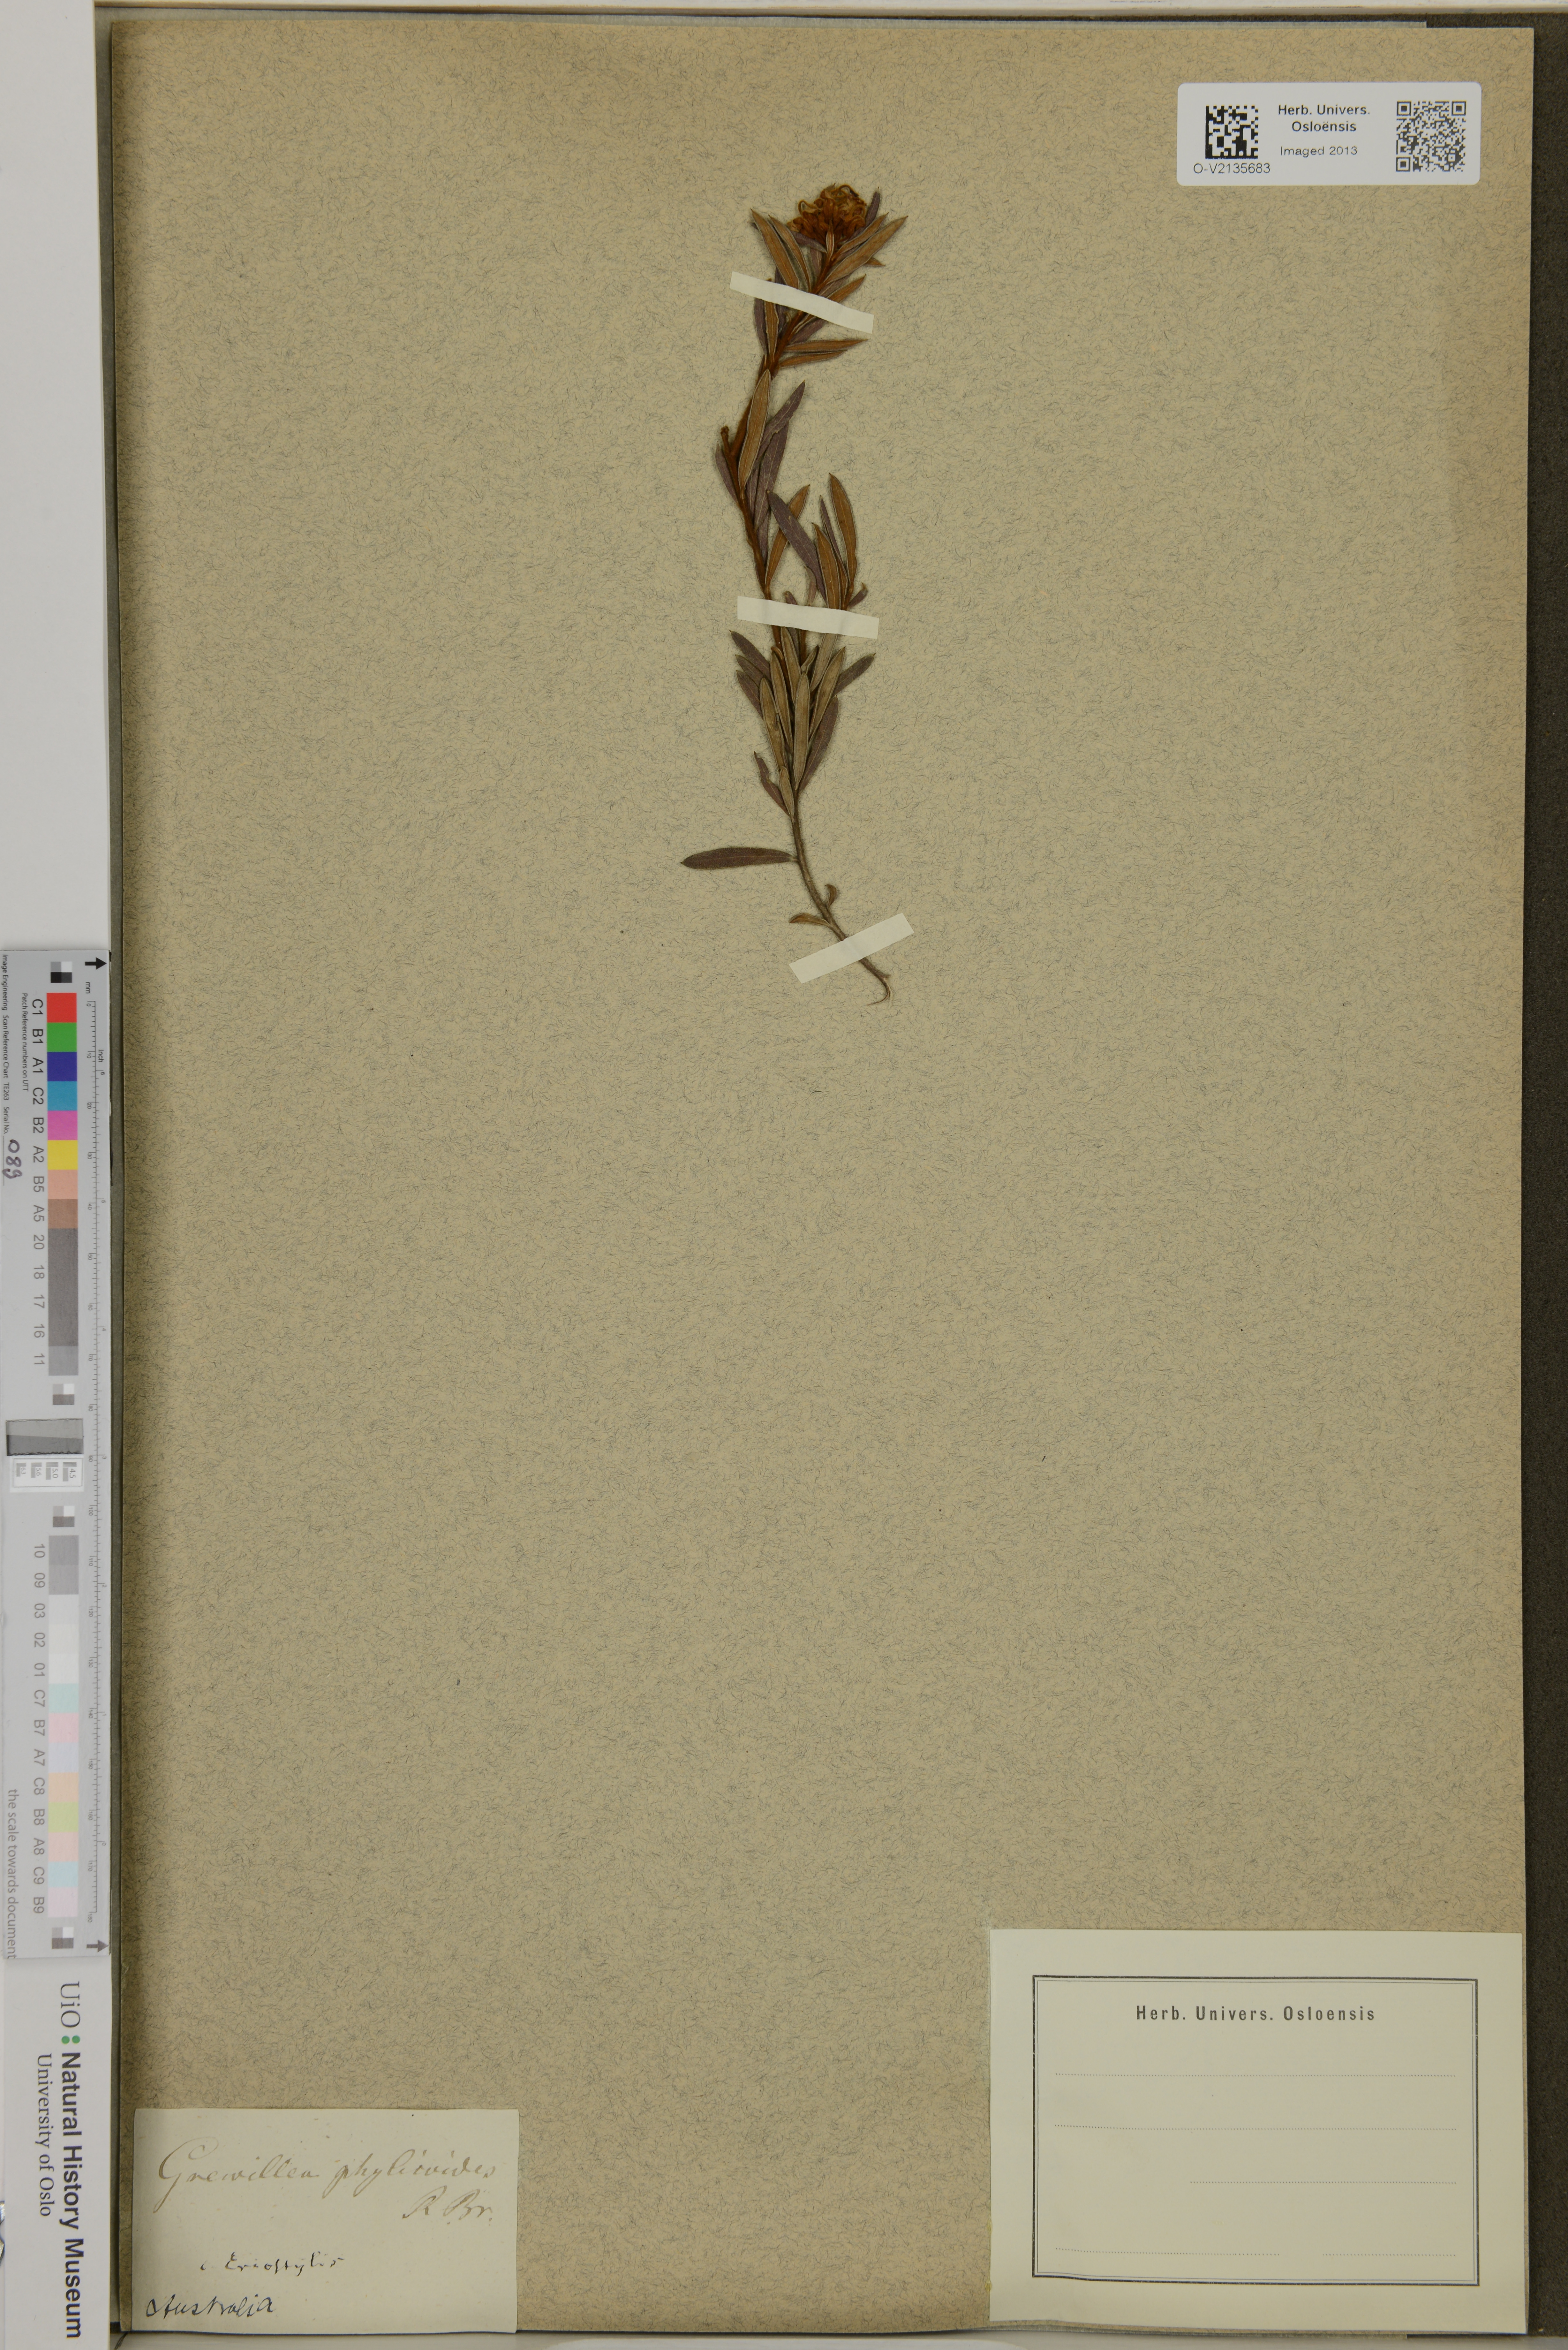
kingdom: Plantae
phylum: Tracheophyta
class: Magnoliopsida
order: Proteales
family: Proteaceae
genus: Grevillea
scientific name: Grevillea phylicoides
